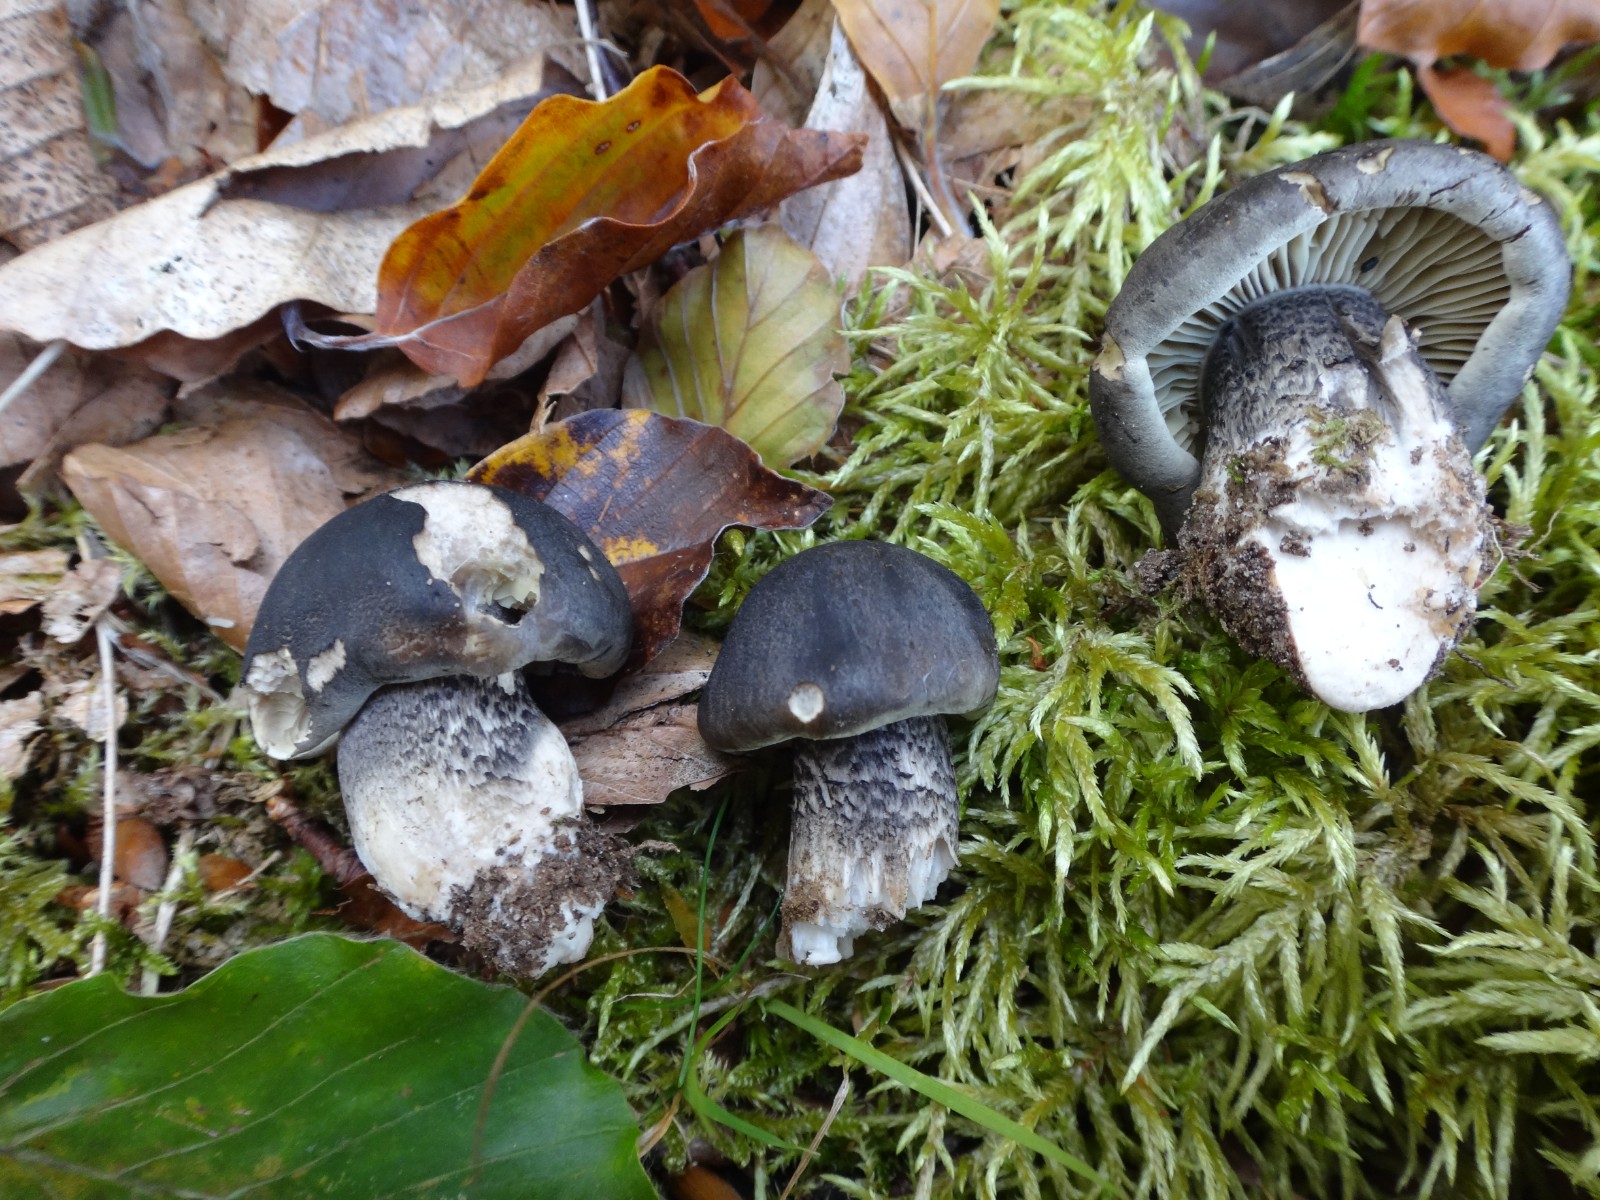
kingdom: Fungi
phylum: Basidiomycota
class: Agaricomycetes
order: Agaricales
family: Tricholomataceae
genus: Tricholoma
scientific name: Tricholoma saponaceum
